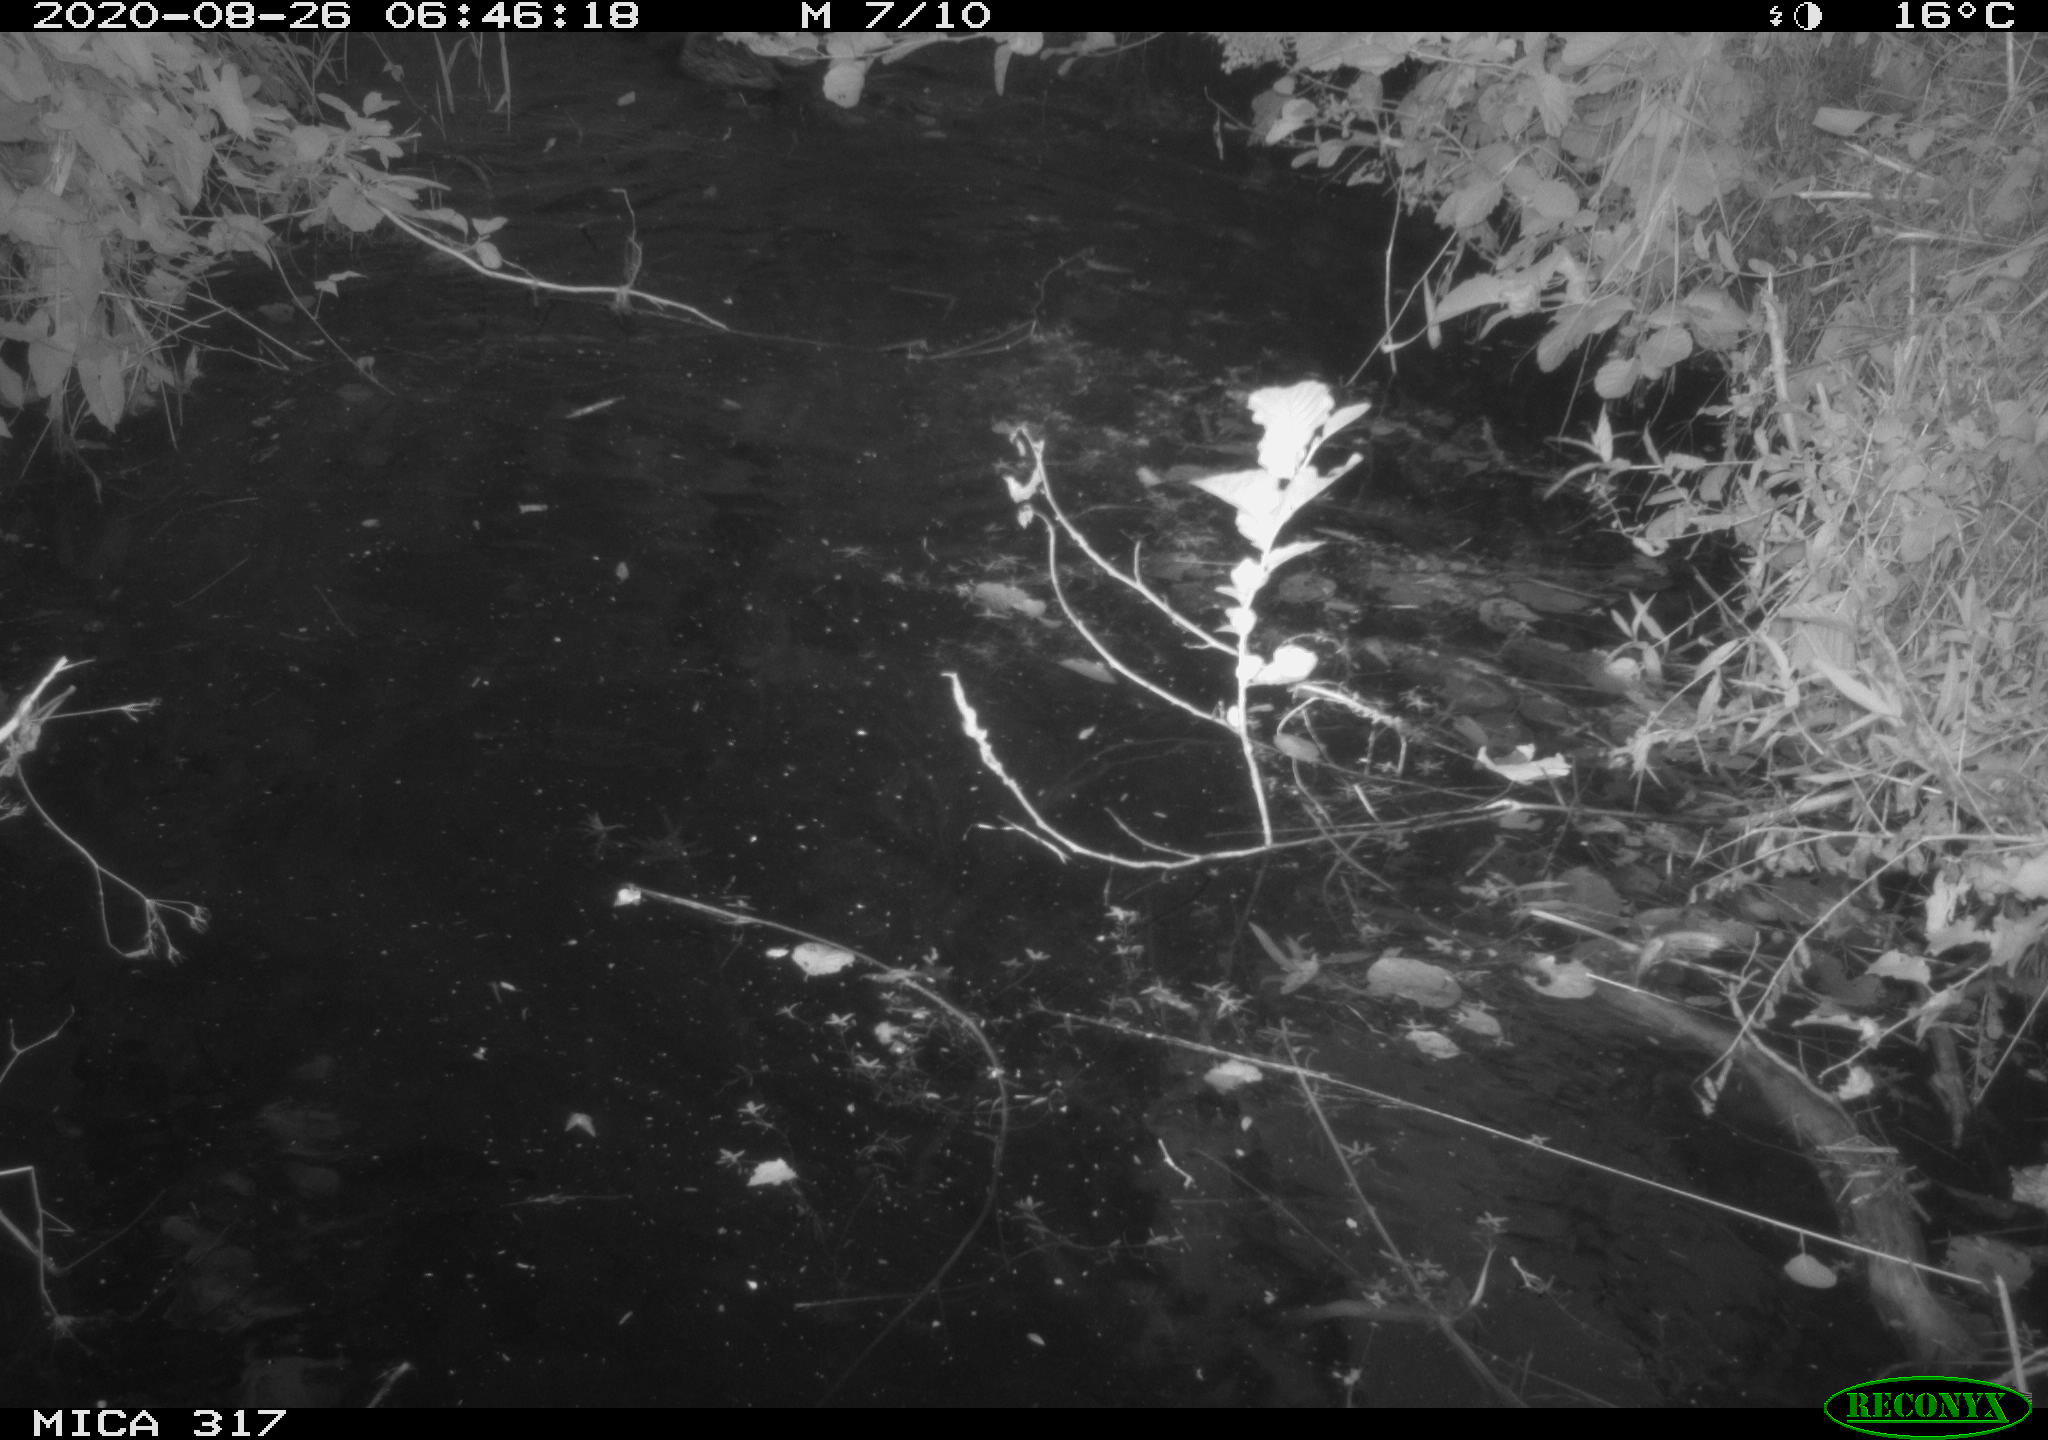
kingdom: Animalia
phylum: Chordata
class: Aves
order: Anseriformes
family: Anatidae
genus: Anas
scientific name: Anas platyrhynchos
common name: Mallard
